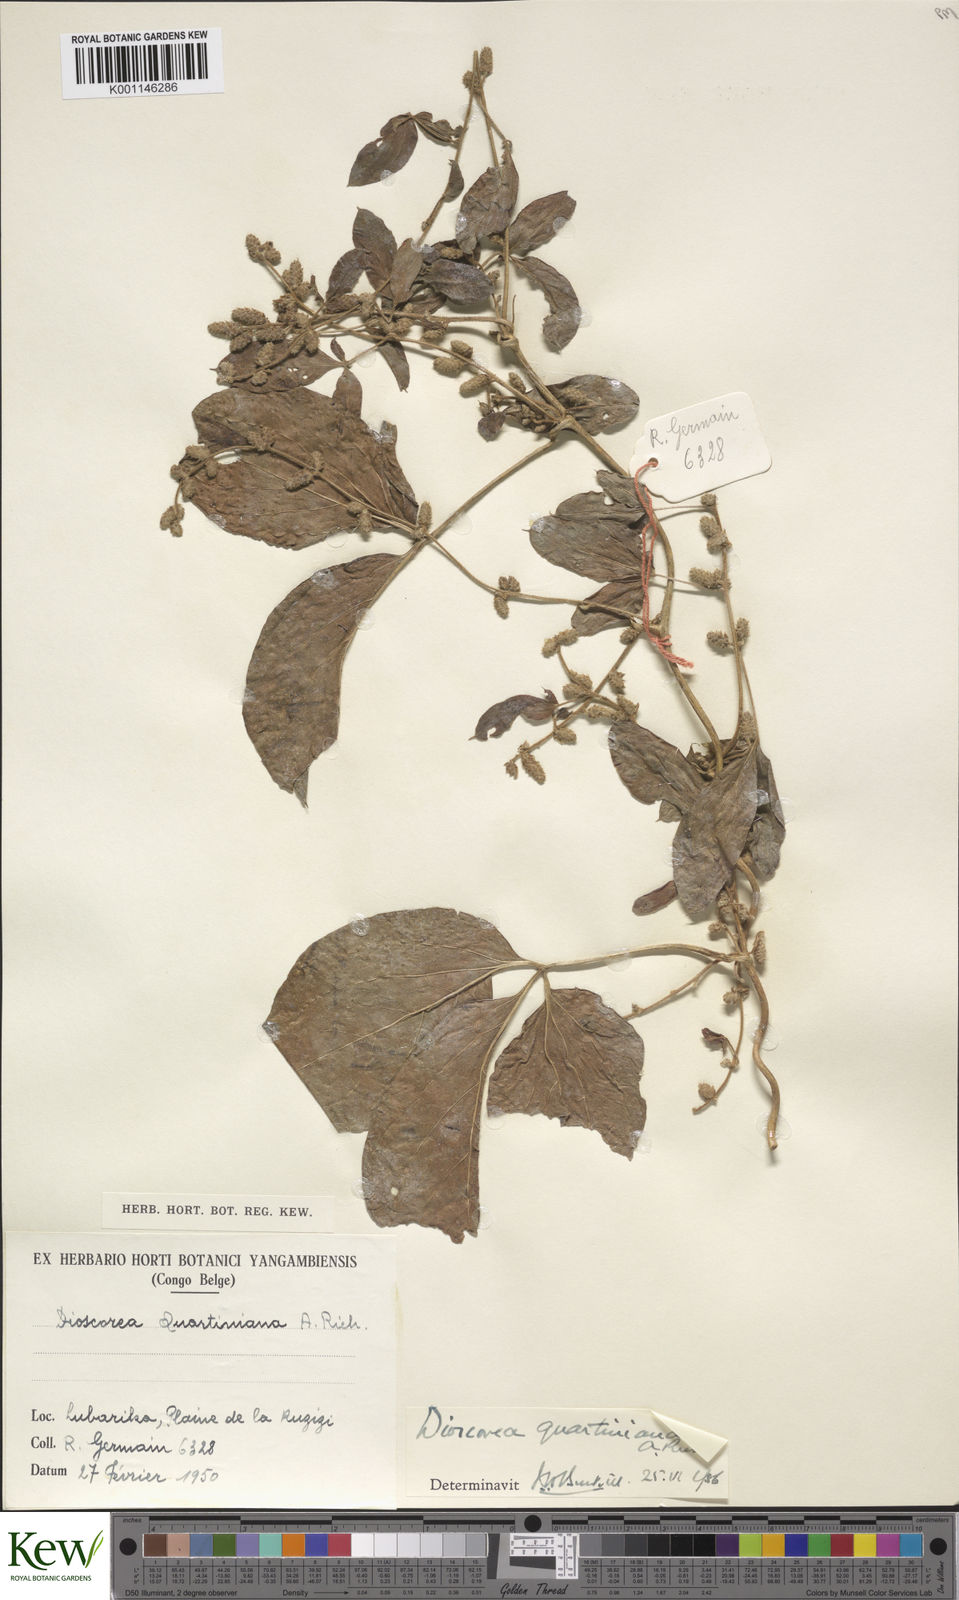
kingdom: Plantae
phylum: Tracheophyta
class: Liliopsida
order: Dioscoreales
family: Dioscoreaceae
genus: Dioscorea
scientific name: Dioscorea quartiniana
